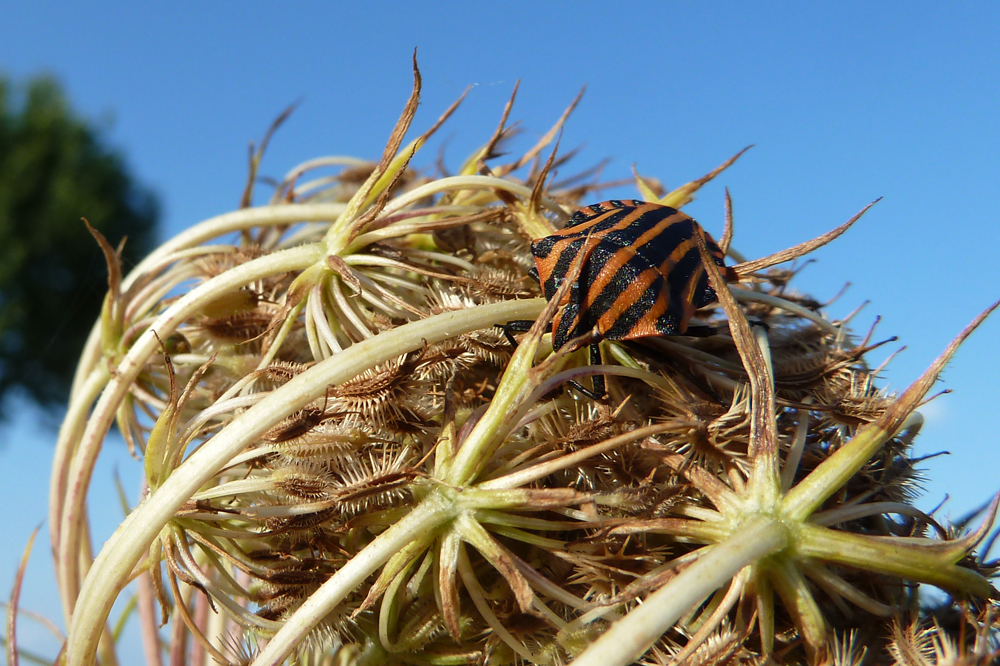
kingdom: Animalia
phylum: Arthropoda
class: Insecta
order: Hemiptera
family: Pentatomidae
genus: Graphosoma
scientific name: Graphosoma lineatum
